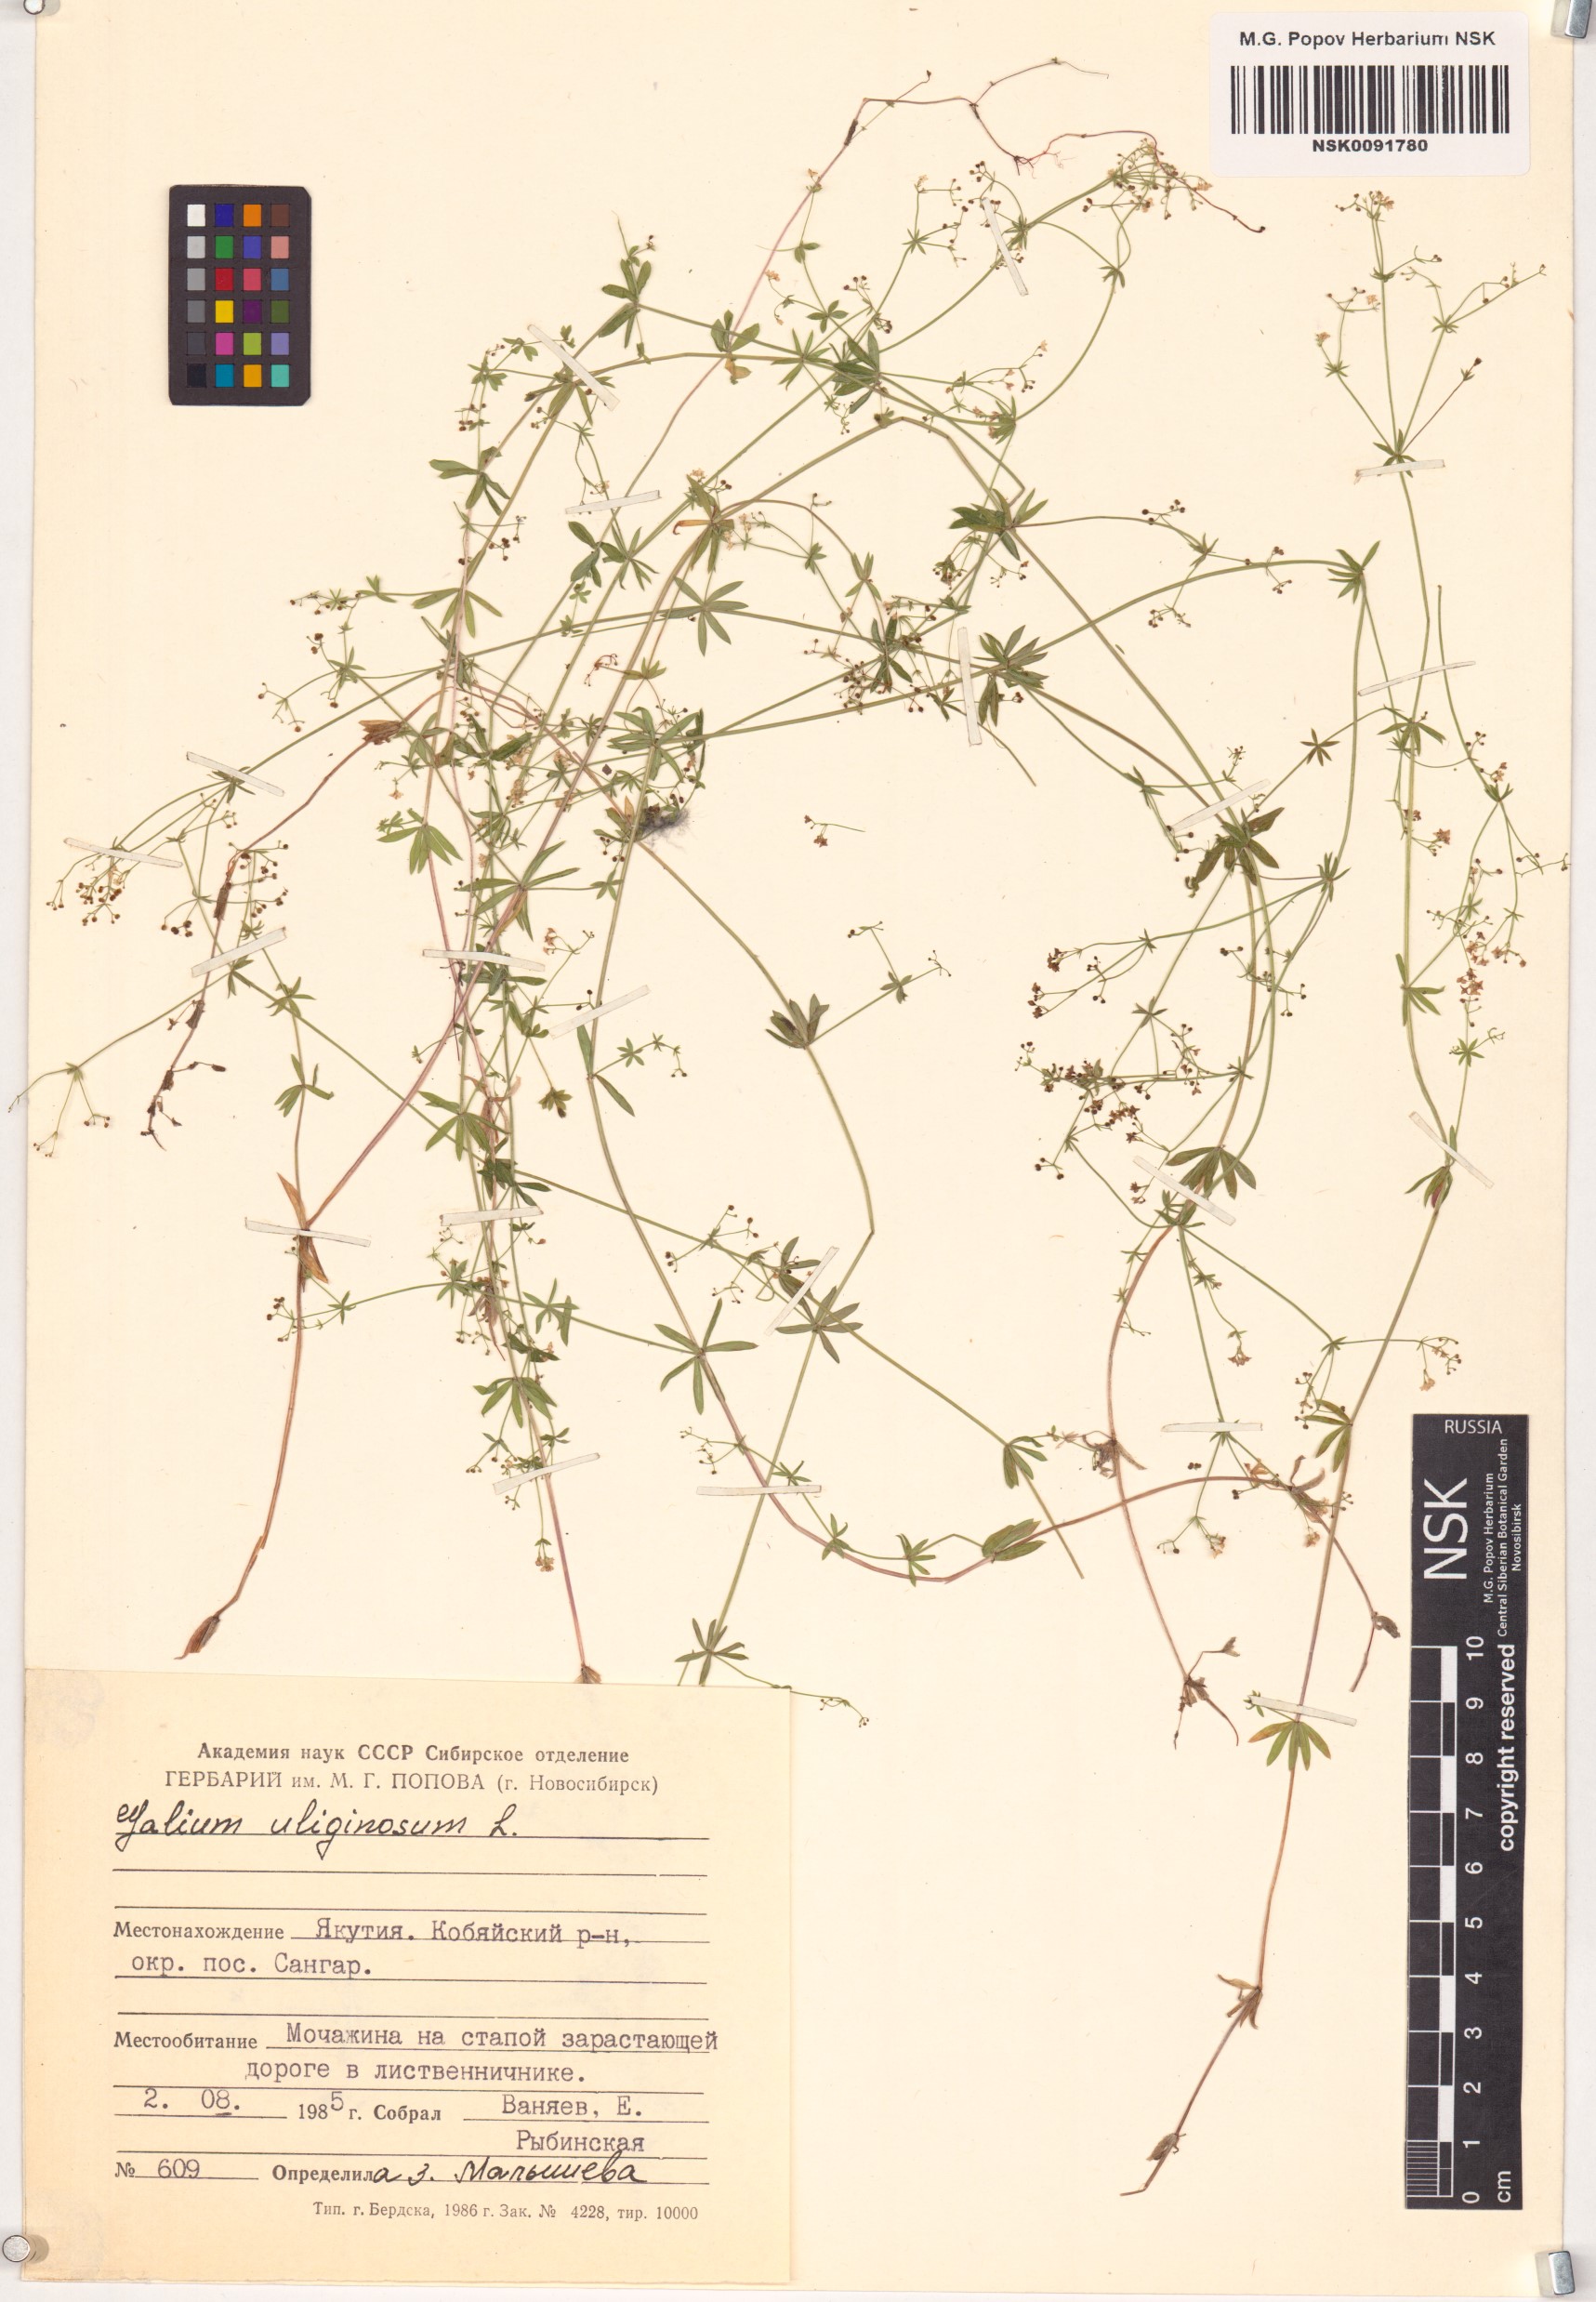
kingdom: Plantae
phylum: Tracheophyta
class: Magnoliopsida
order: Gentianales
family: Rubiaceae
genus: Galium
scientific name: Galium uliginosum
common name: Fen bedstraw
